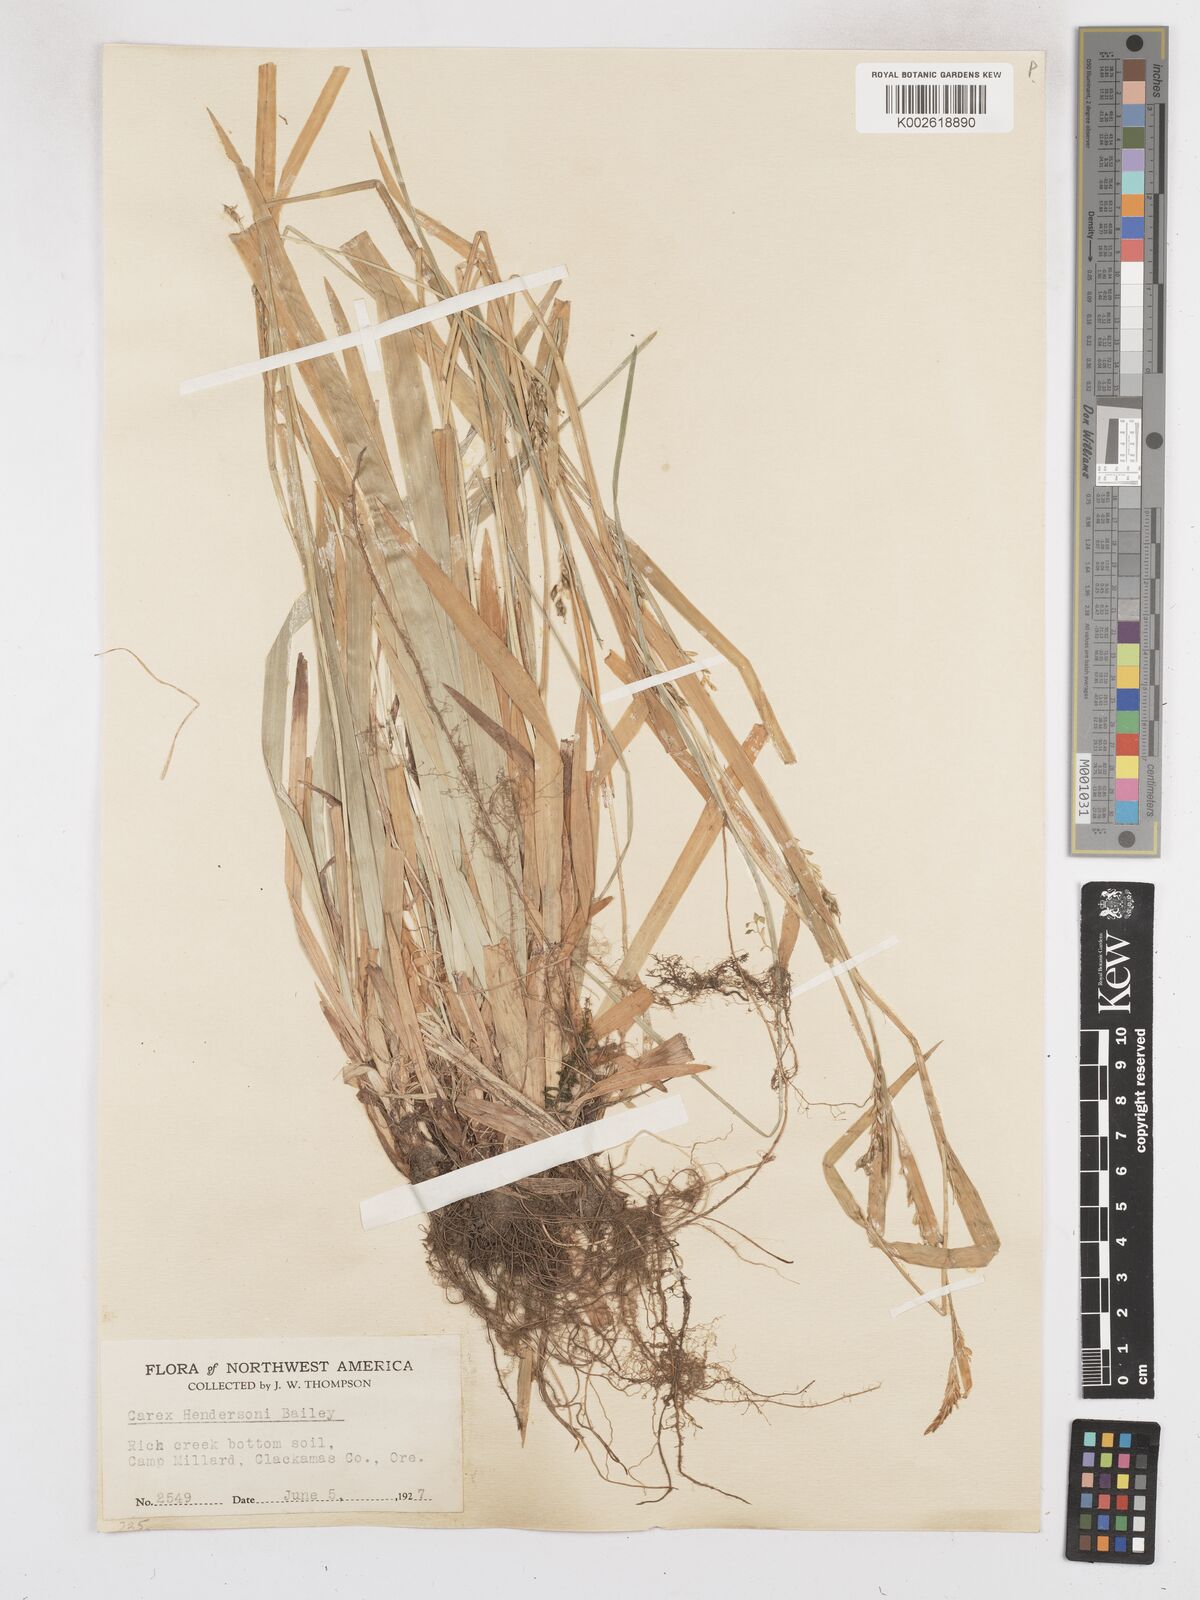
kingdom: Plantae
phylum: Tracheophyta
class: Liliopsida
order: Poales
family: Cyperaceae
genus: Carex
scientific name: Carex hendersonii
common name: Henderson's sedge
